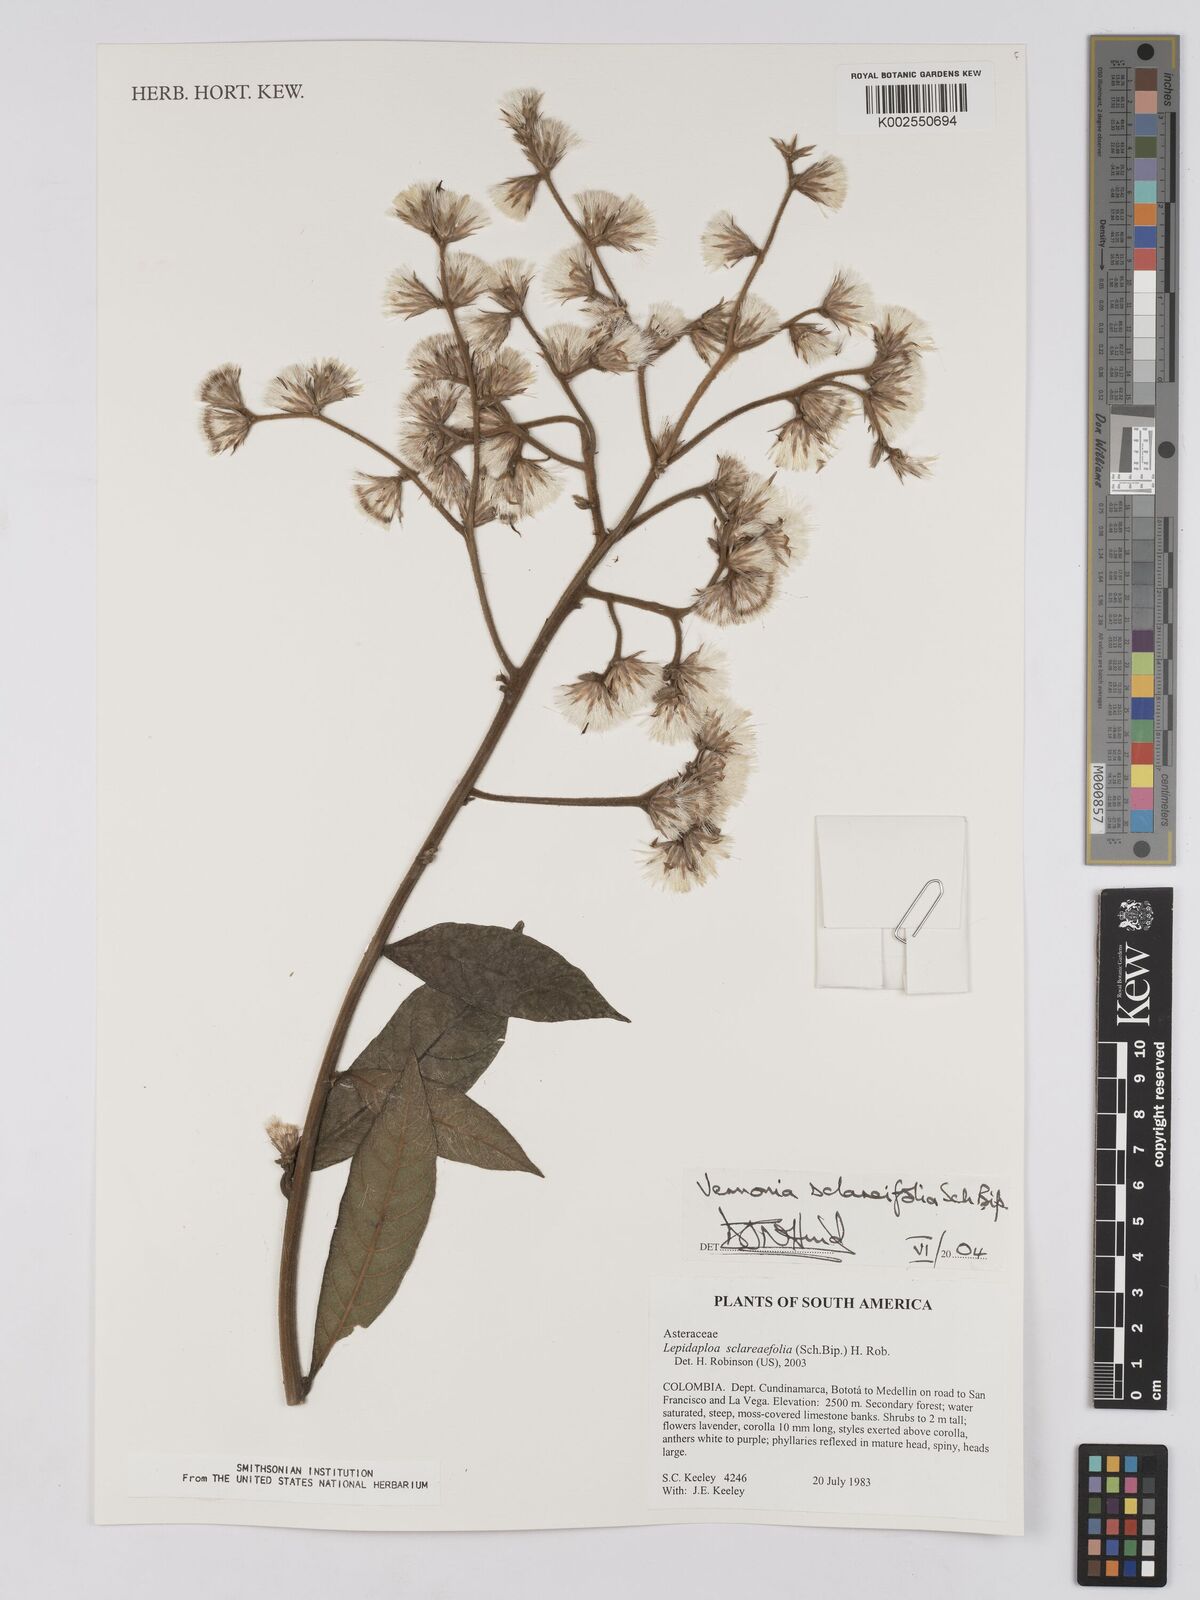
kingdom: Plantae
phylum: Tracheophyta
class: Magnoliopsida
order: Asterales
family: Asteraceae
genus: Lepidaploa
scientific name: Lepidaploa sclareifolia
